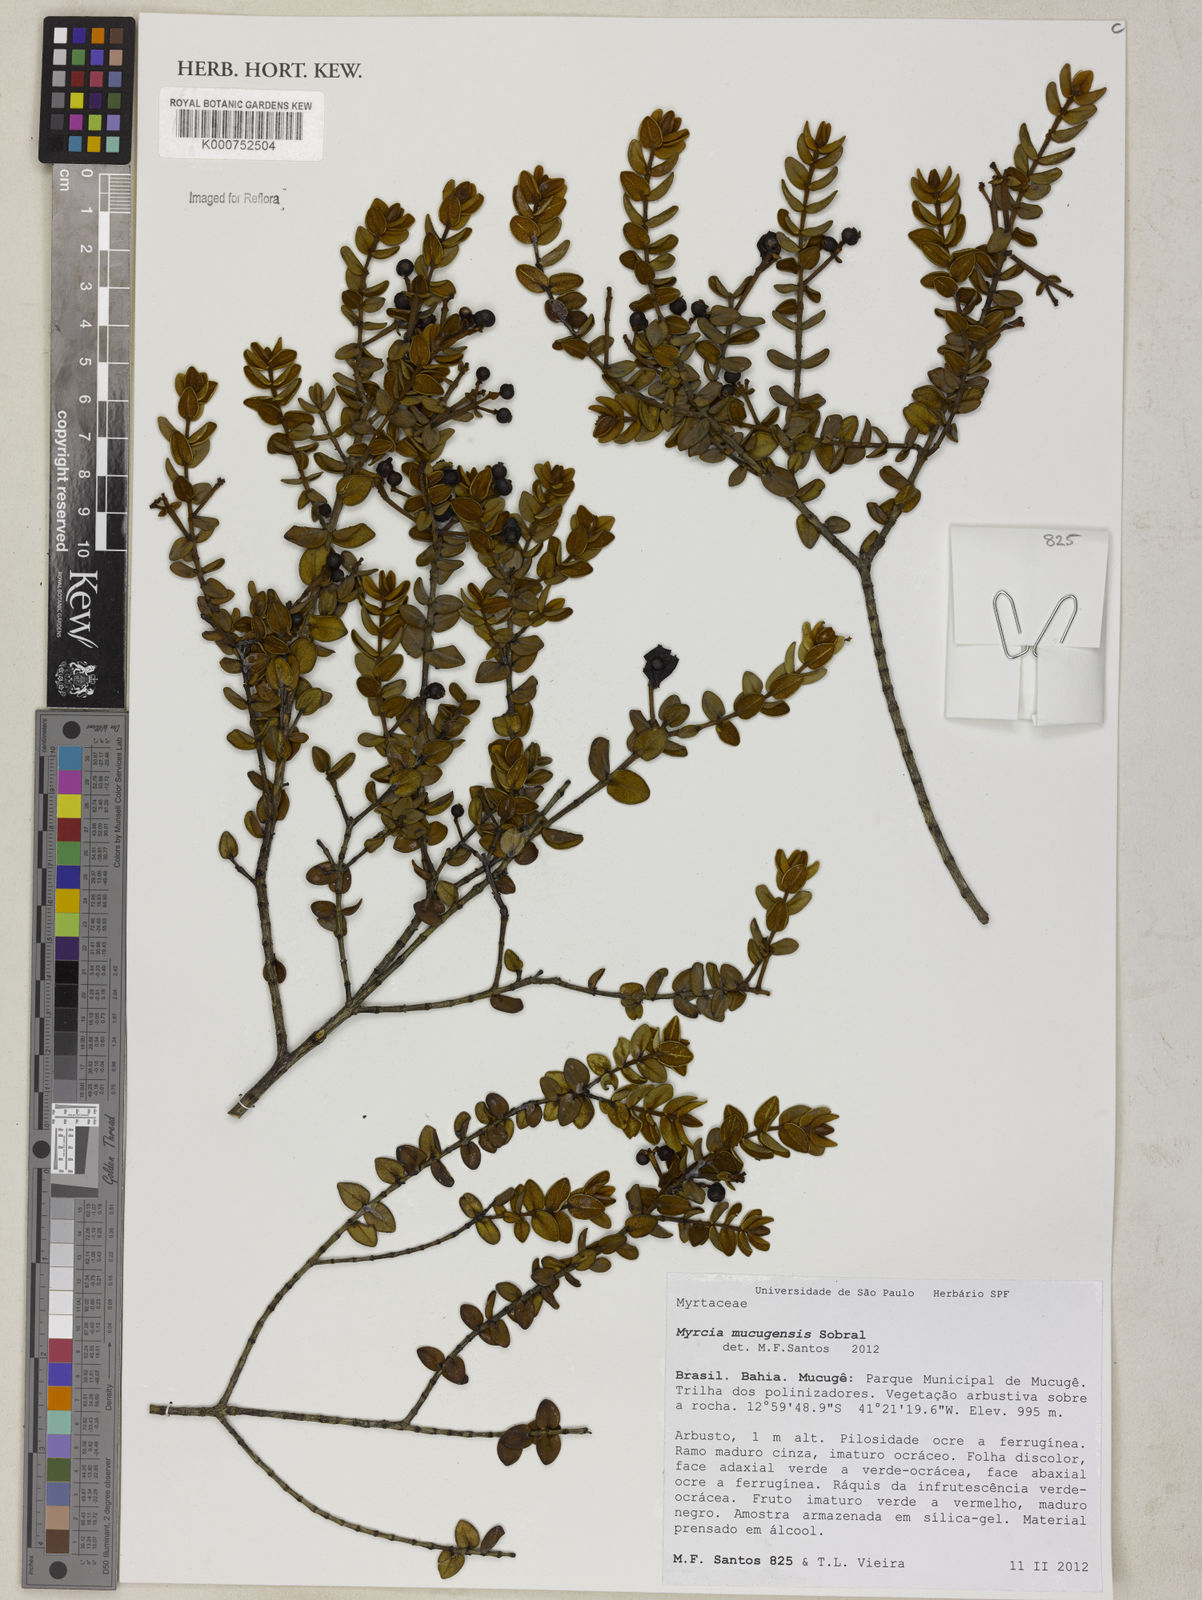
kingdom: Plantae
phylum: Tracheophyta
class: Magnoliopsida
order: Myrtales
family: Myrtaceae
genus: Myrcia
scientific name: Myrcia mucugensis
